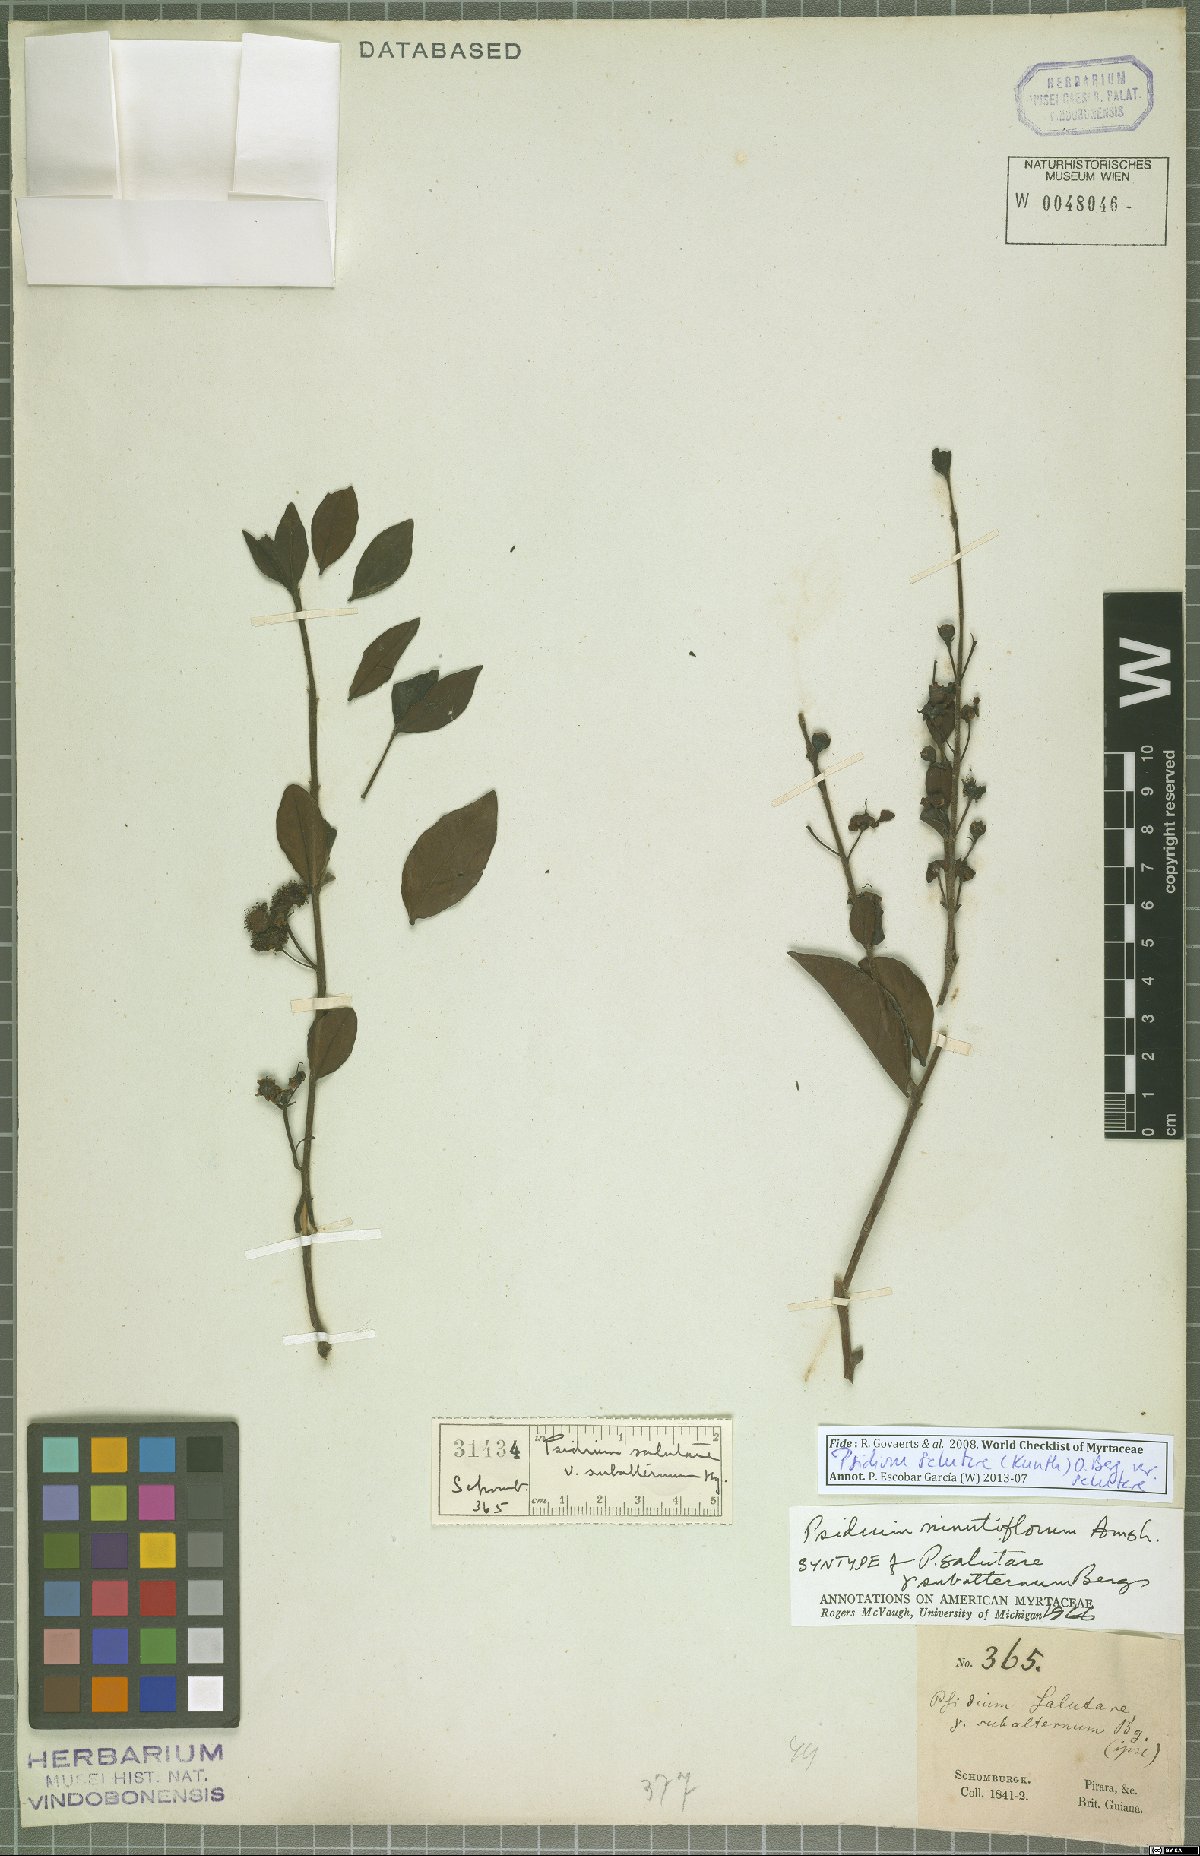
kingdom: Plantae
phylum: Tracheophyta
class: Magnoliopsida
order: Myrtales
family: Myrtaceae
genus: Psidium
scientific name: Psidium salutare
